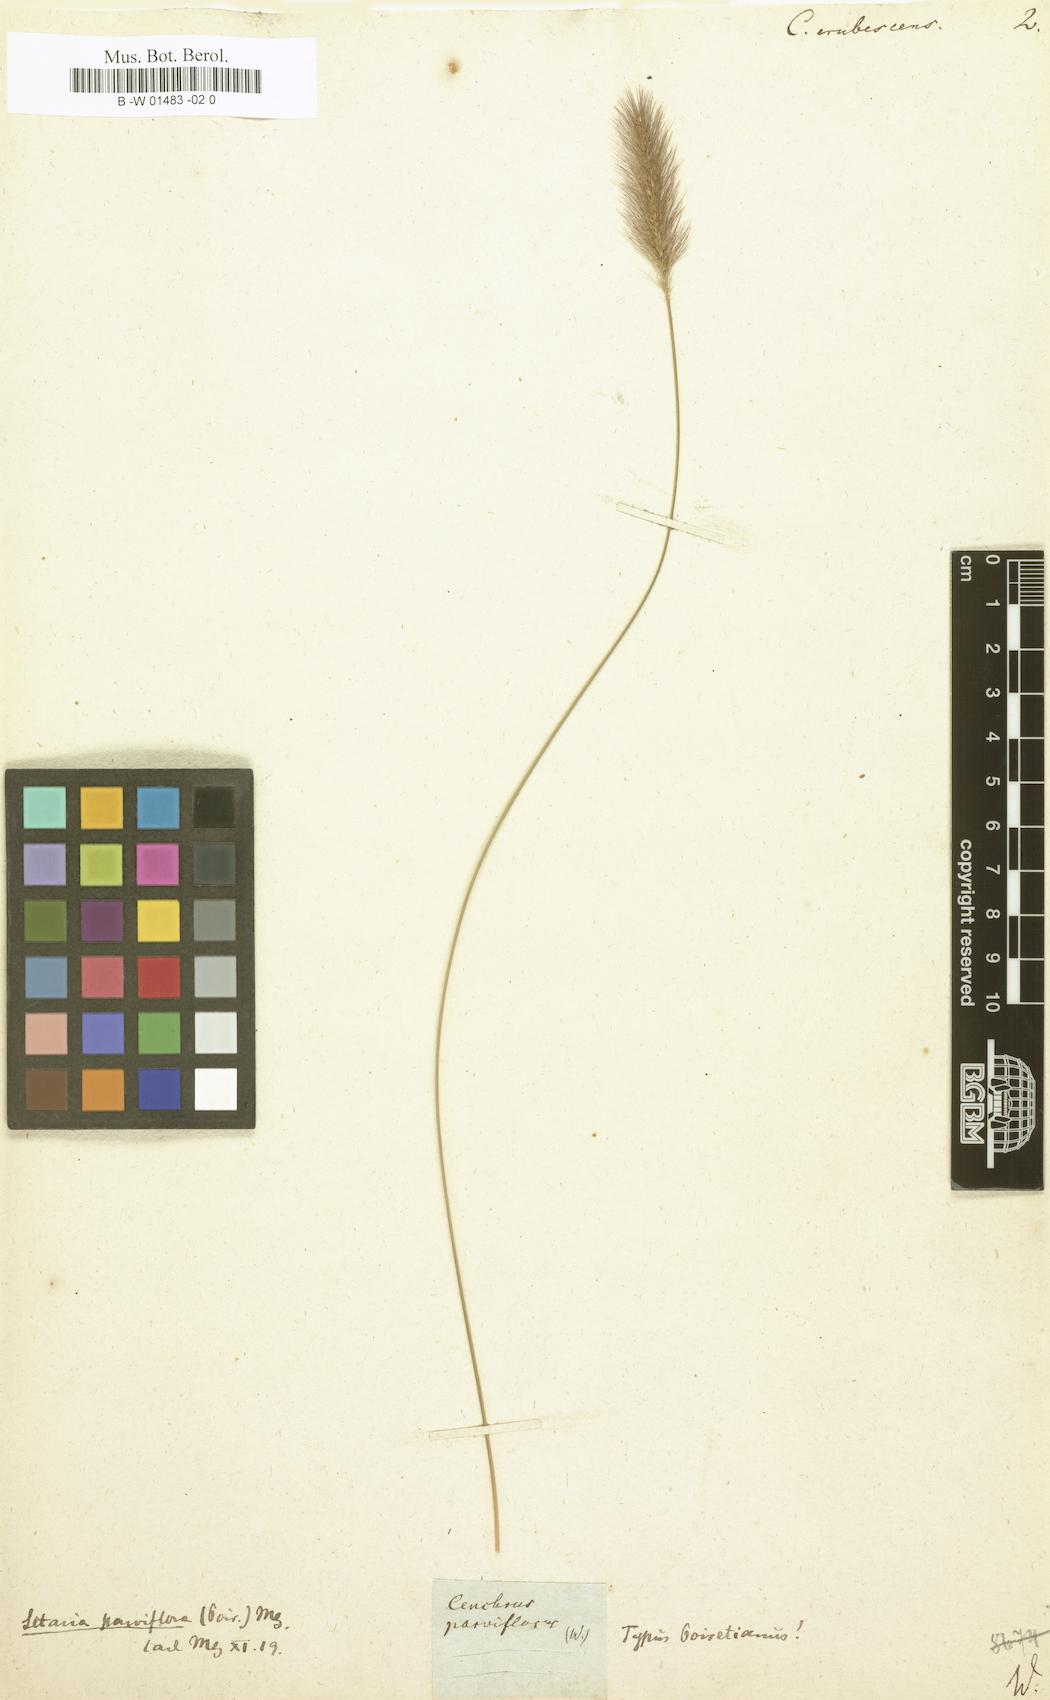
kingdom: Plantae
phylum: Tracheophyta
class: Liliopsida
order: Poales
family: Poaceae
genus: Cenchrus
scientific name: Cenchrus
